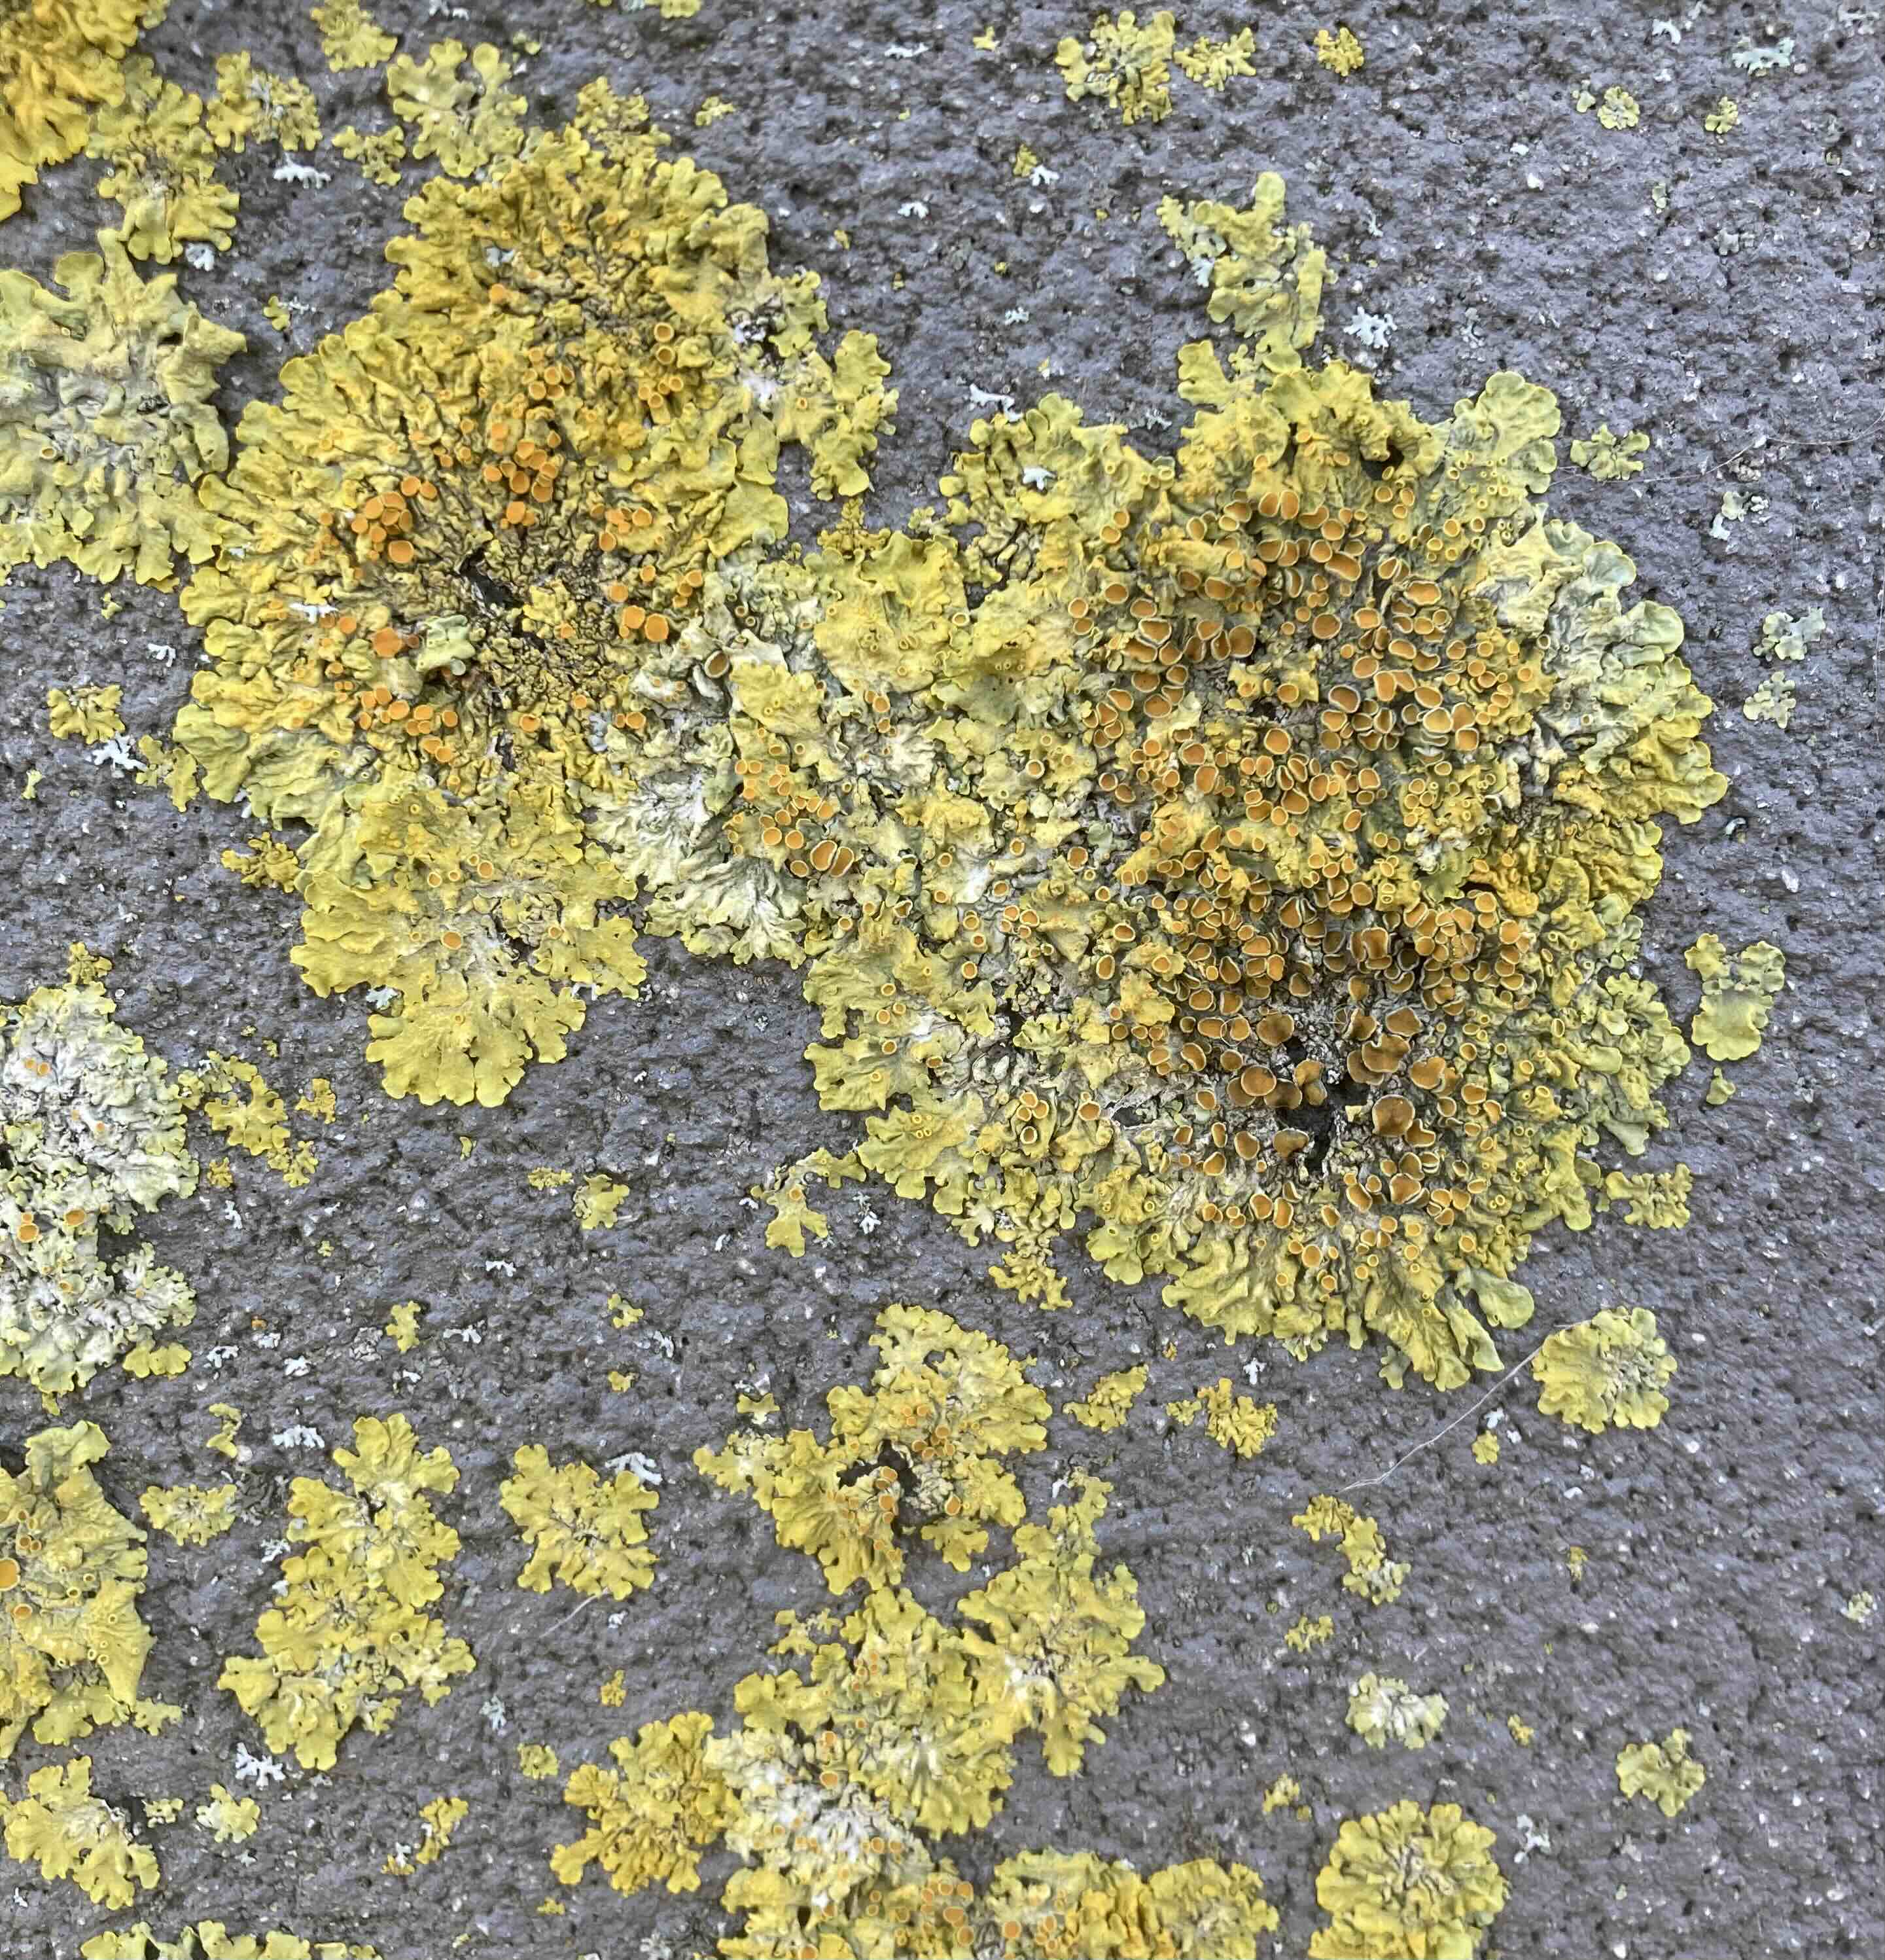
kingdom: Fungi
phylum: Ascomycota
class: Lecanoromycetes
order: Teloschistales
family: Teloschistaceae
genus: Xanthoria
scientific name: Xanthoria parietina
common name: almindelig væggelav
